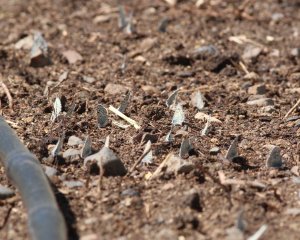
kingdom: Animalia
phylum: Arthropoda
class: Insecta
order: Lepidoptera
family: Lycaenidae
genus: Euphilotes
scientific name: Euphilotes
